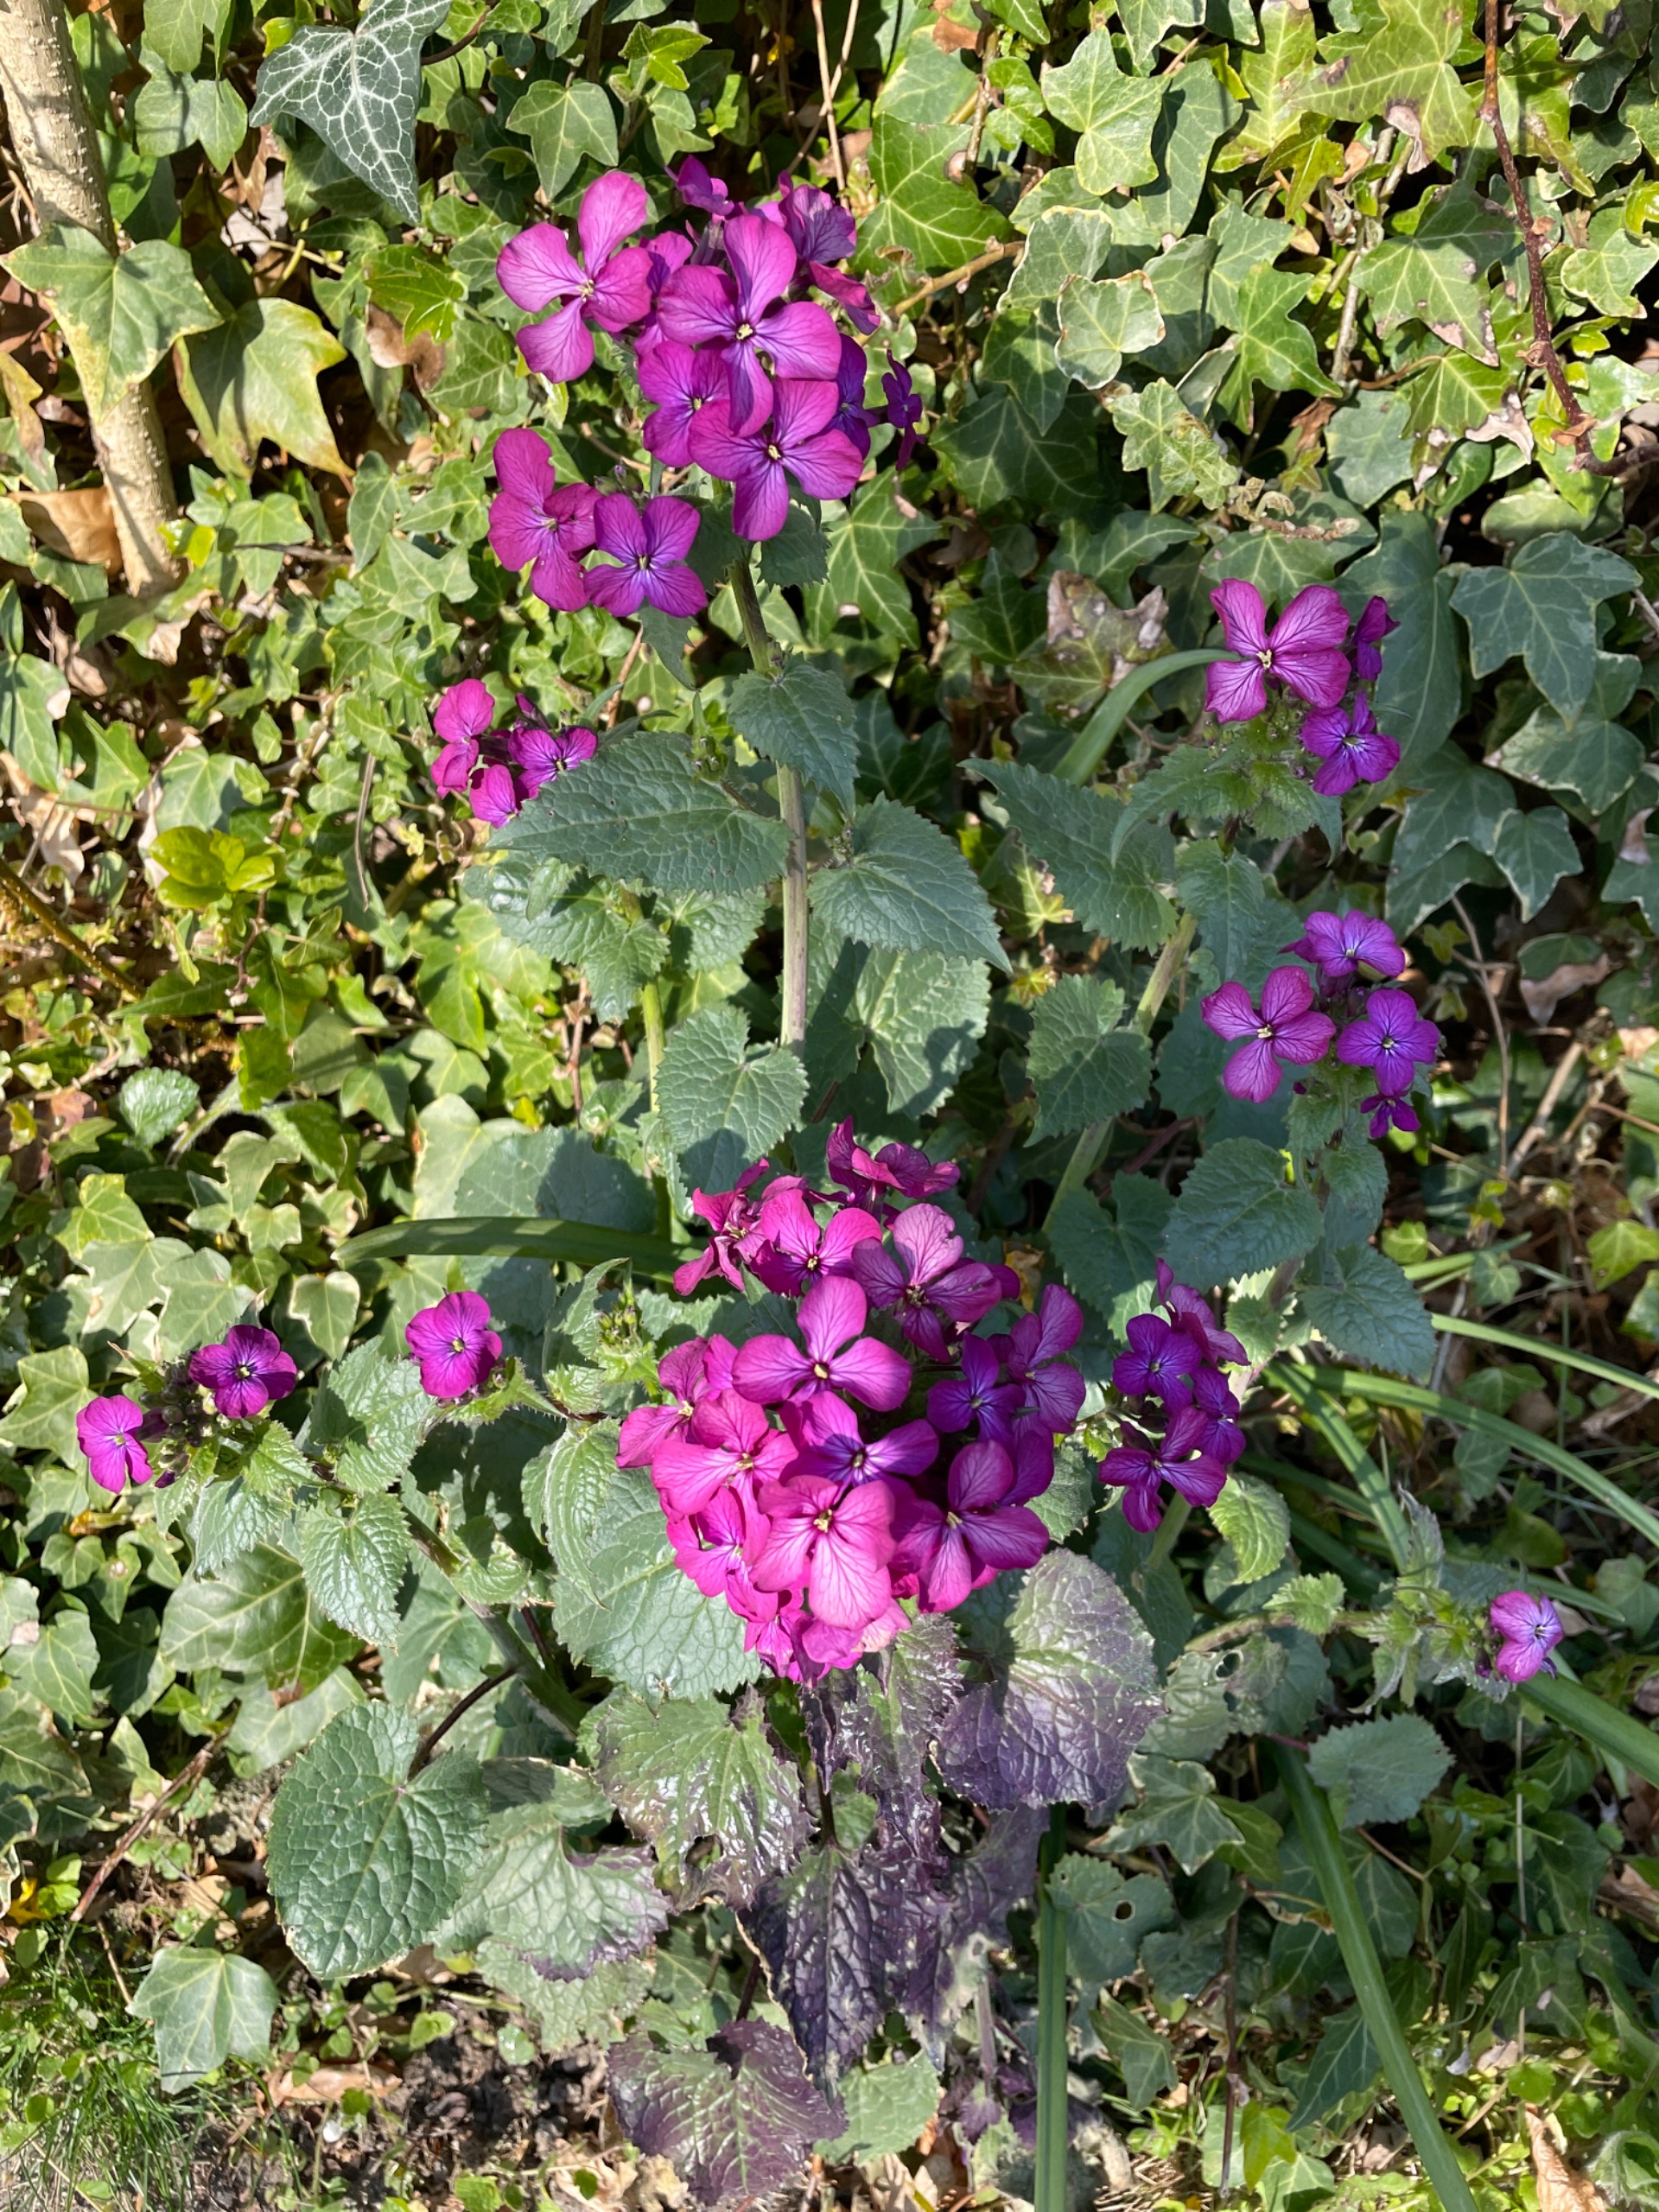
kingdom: Plantae
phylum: Tracheophyta
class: Magnoliopsida
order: Brassicales
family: Brassicaceae
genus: Lunaria
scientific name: Lunaria annua
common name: Judaspenge
